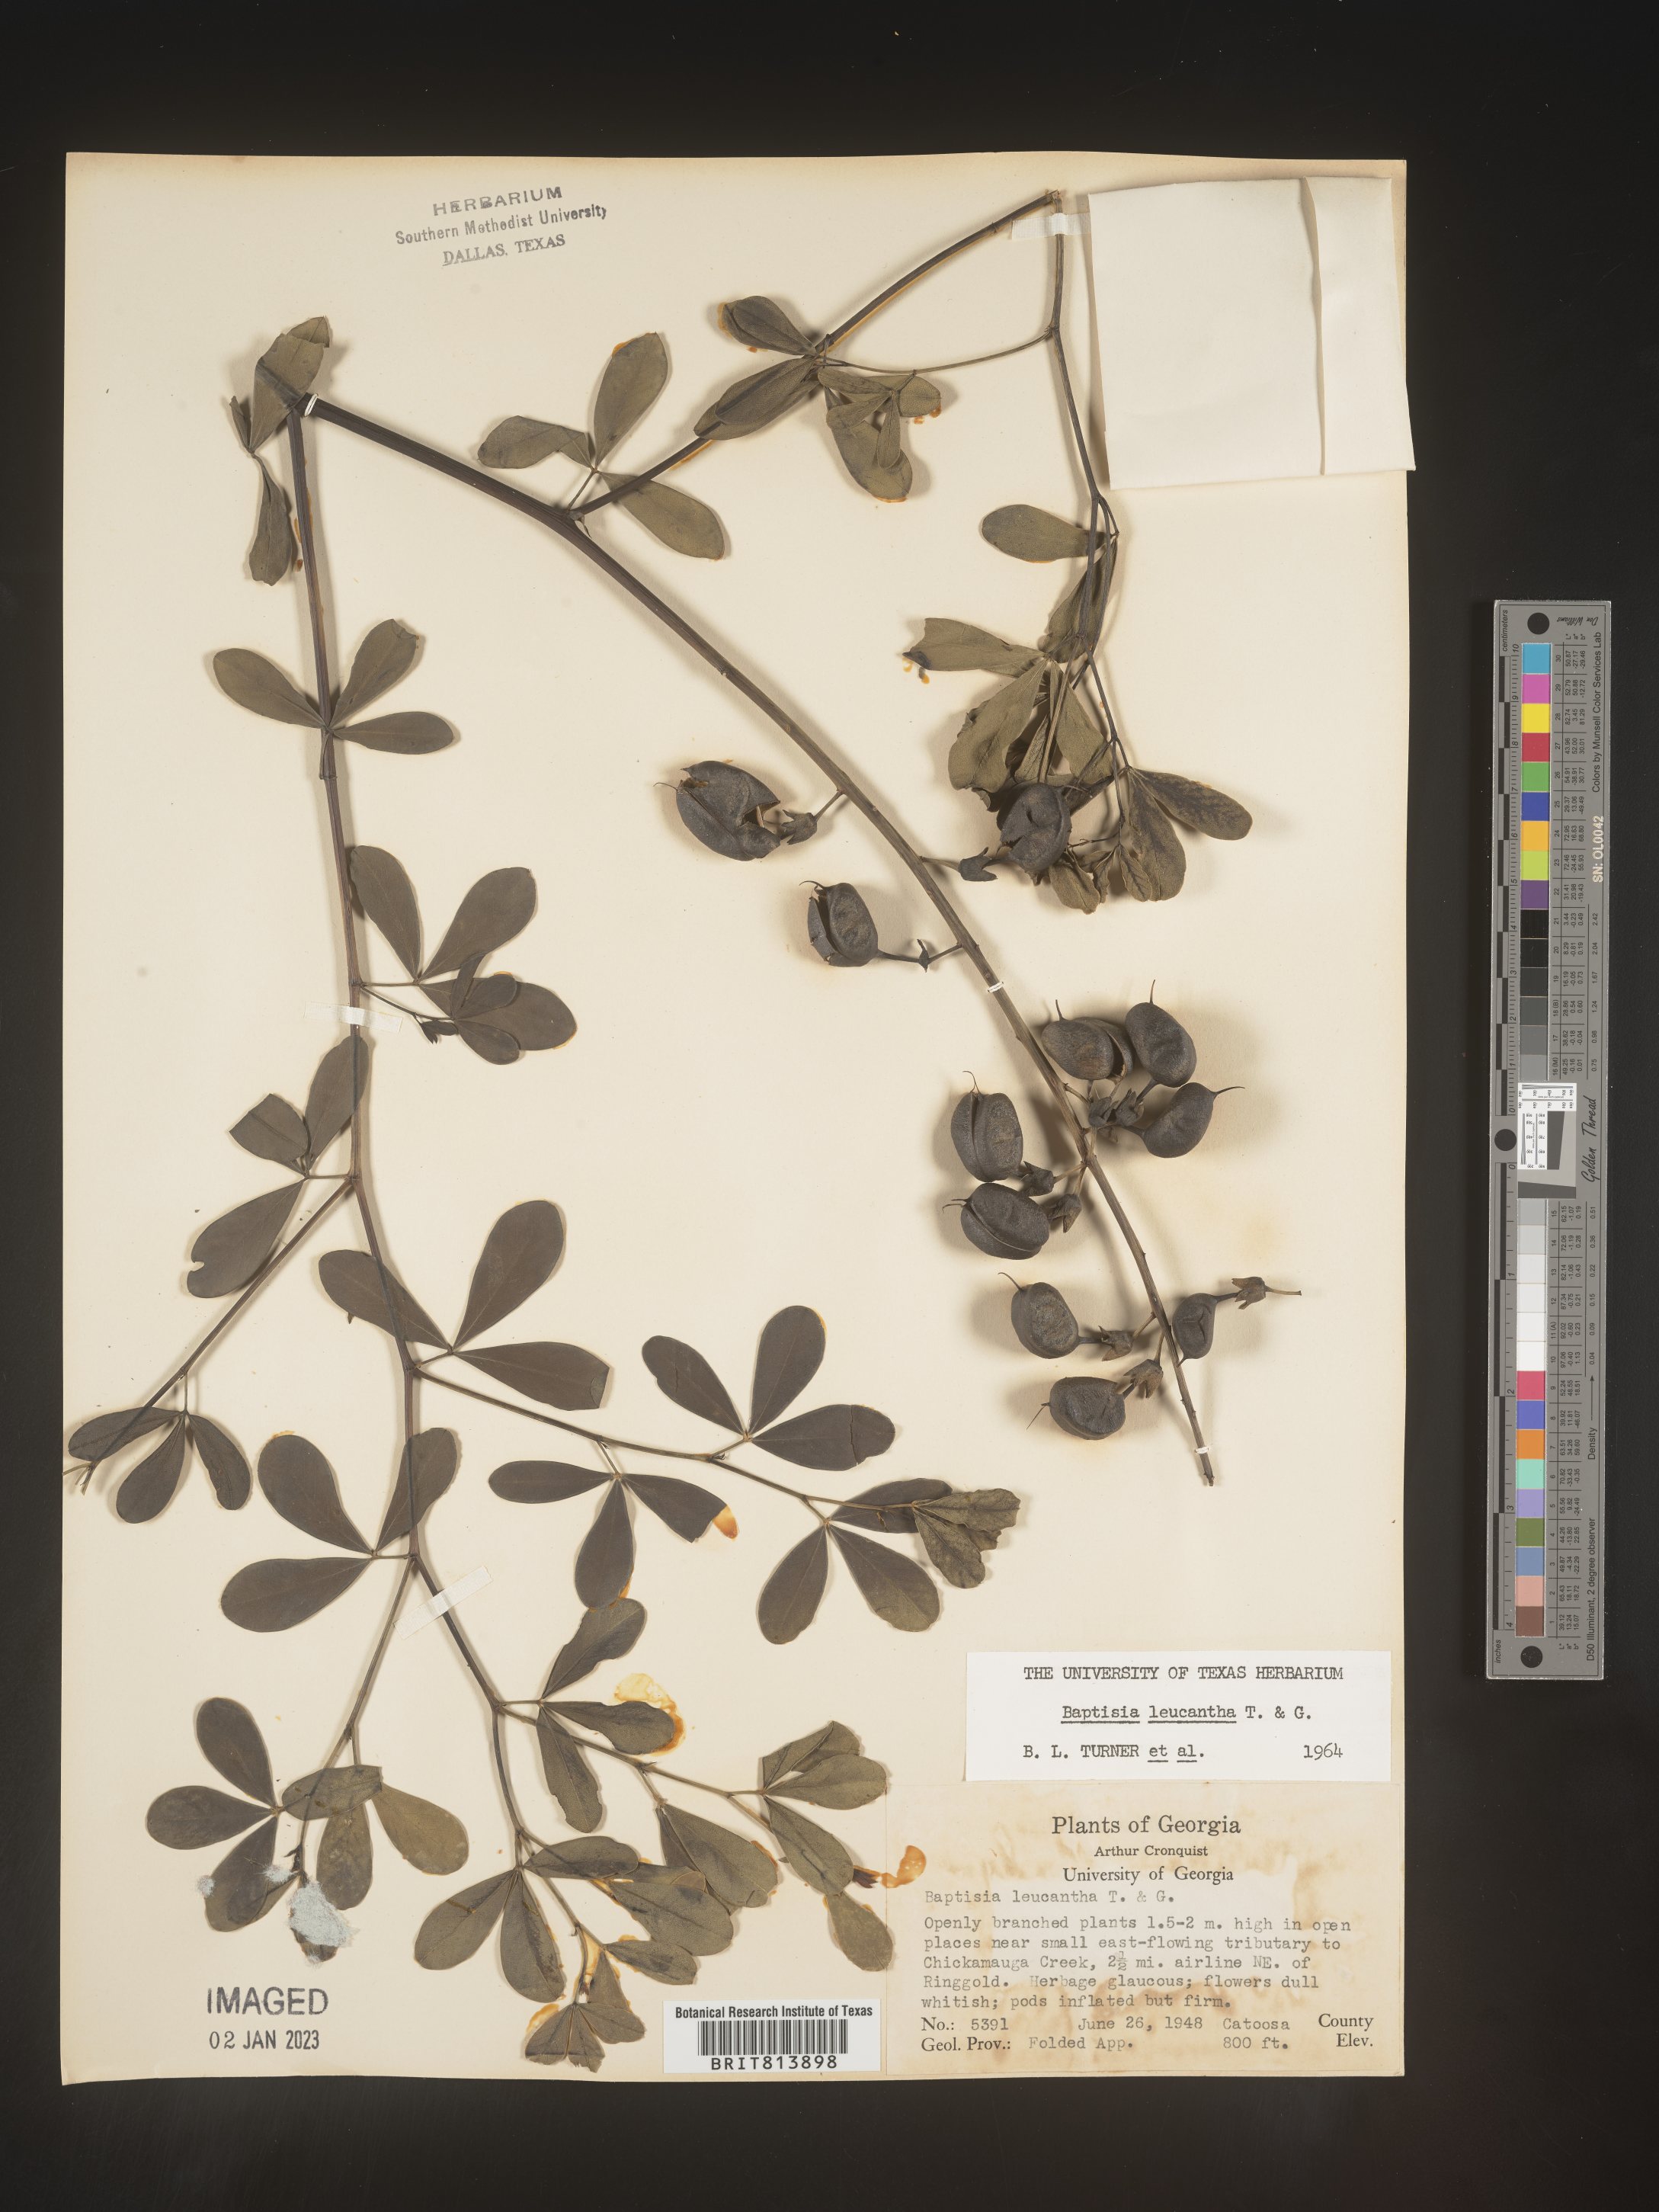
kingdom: Plantae
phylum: Tracheophyta
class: Magnoliopsida
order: Fabales
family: Fabaceae
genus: Baptisia
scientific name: Baptisia alba
